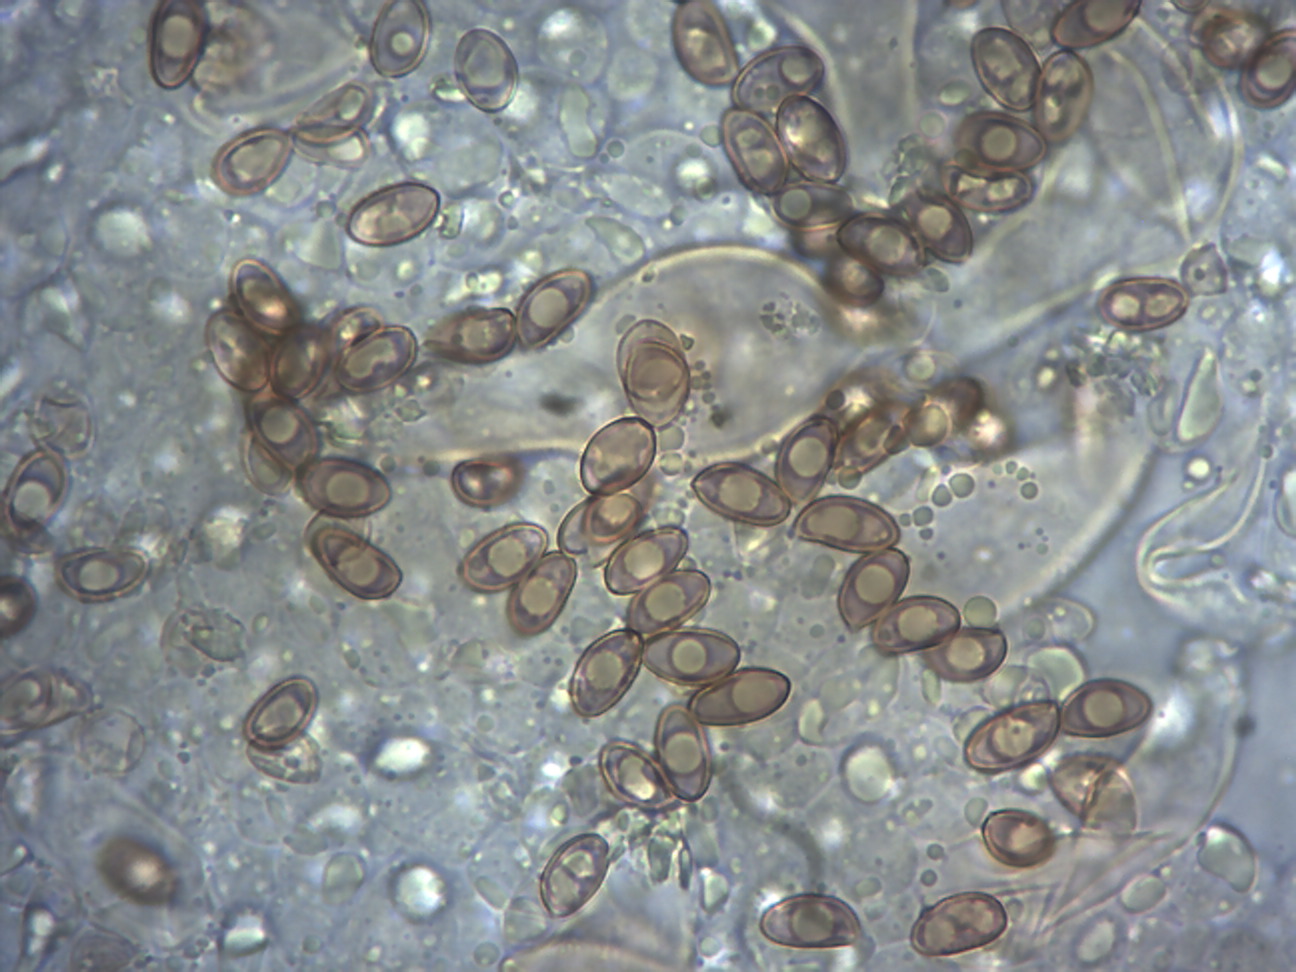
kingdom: Fungi
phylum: Basidiomycota
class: Agaricomycetes
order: Agaricales
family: Inocybaceae
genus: Inocybe
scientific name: Inocybe
